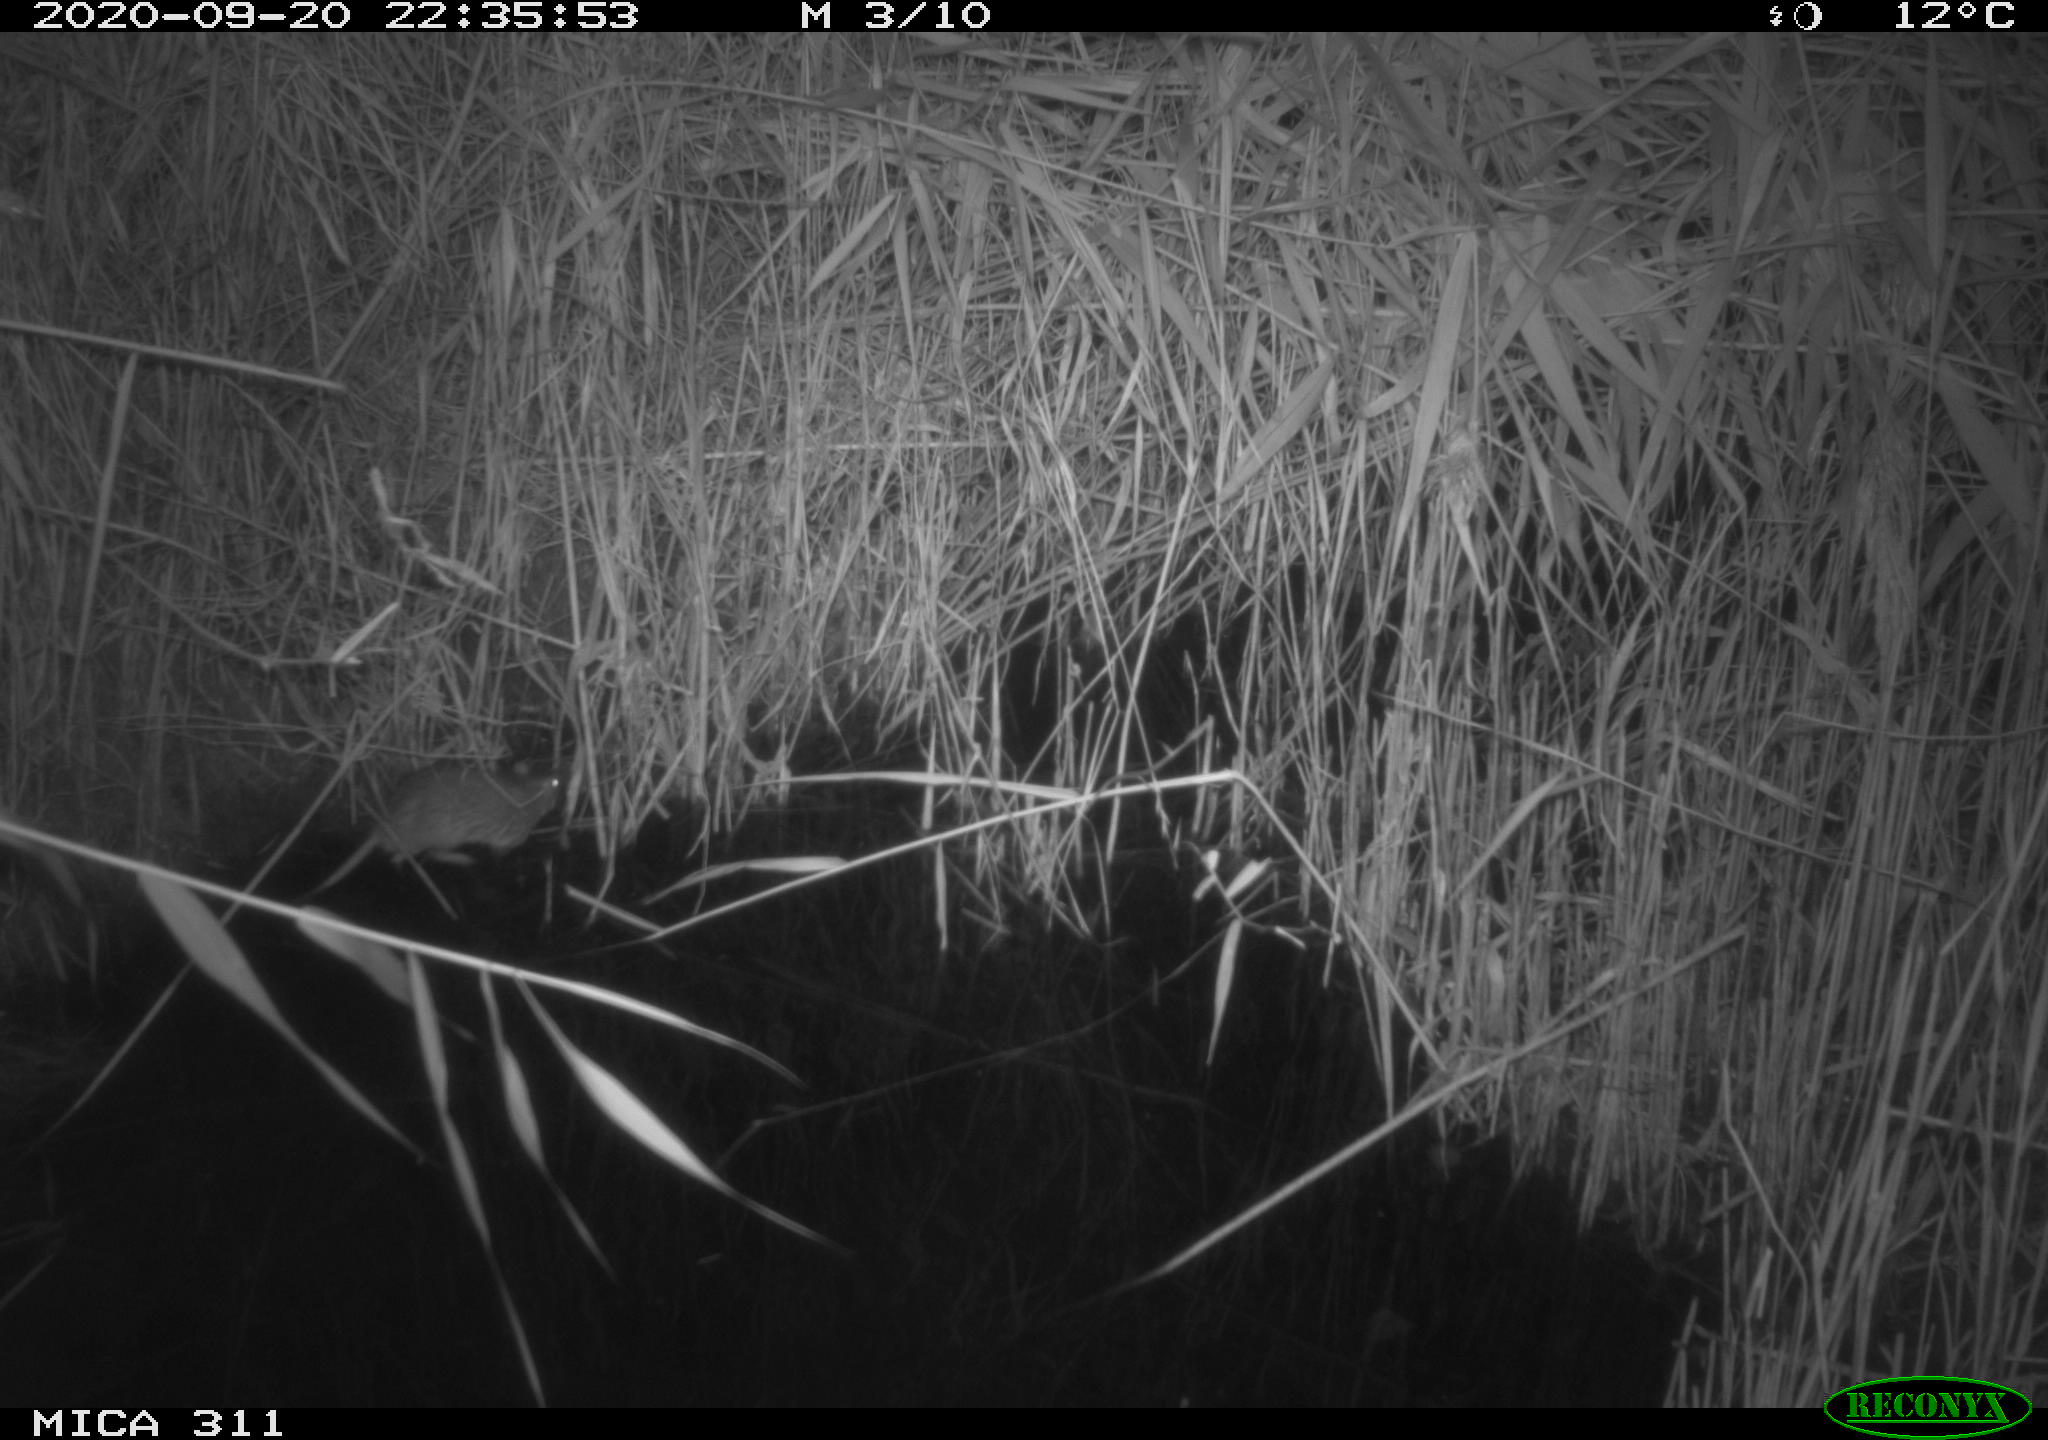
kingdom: Animalia
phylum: Chordata
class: Mammalia
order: Rodentia
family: Muridae
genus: Rattus
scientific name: Rattus norvegicus
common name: Brown rat
